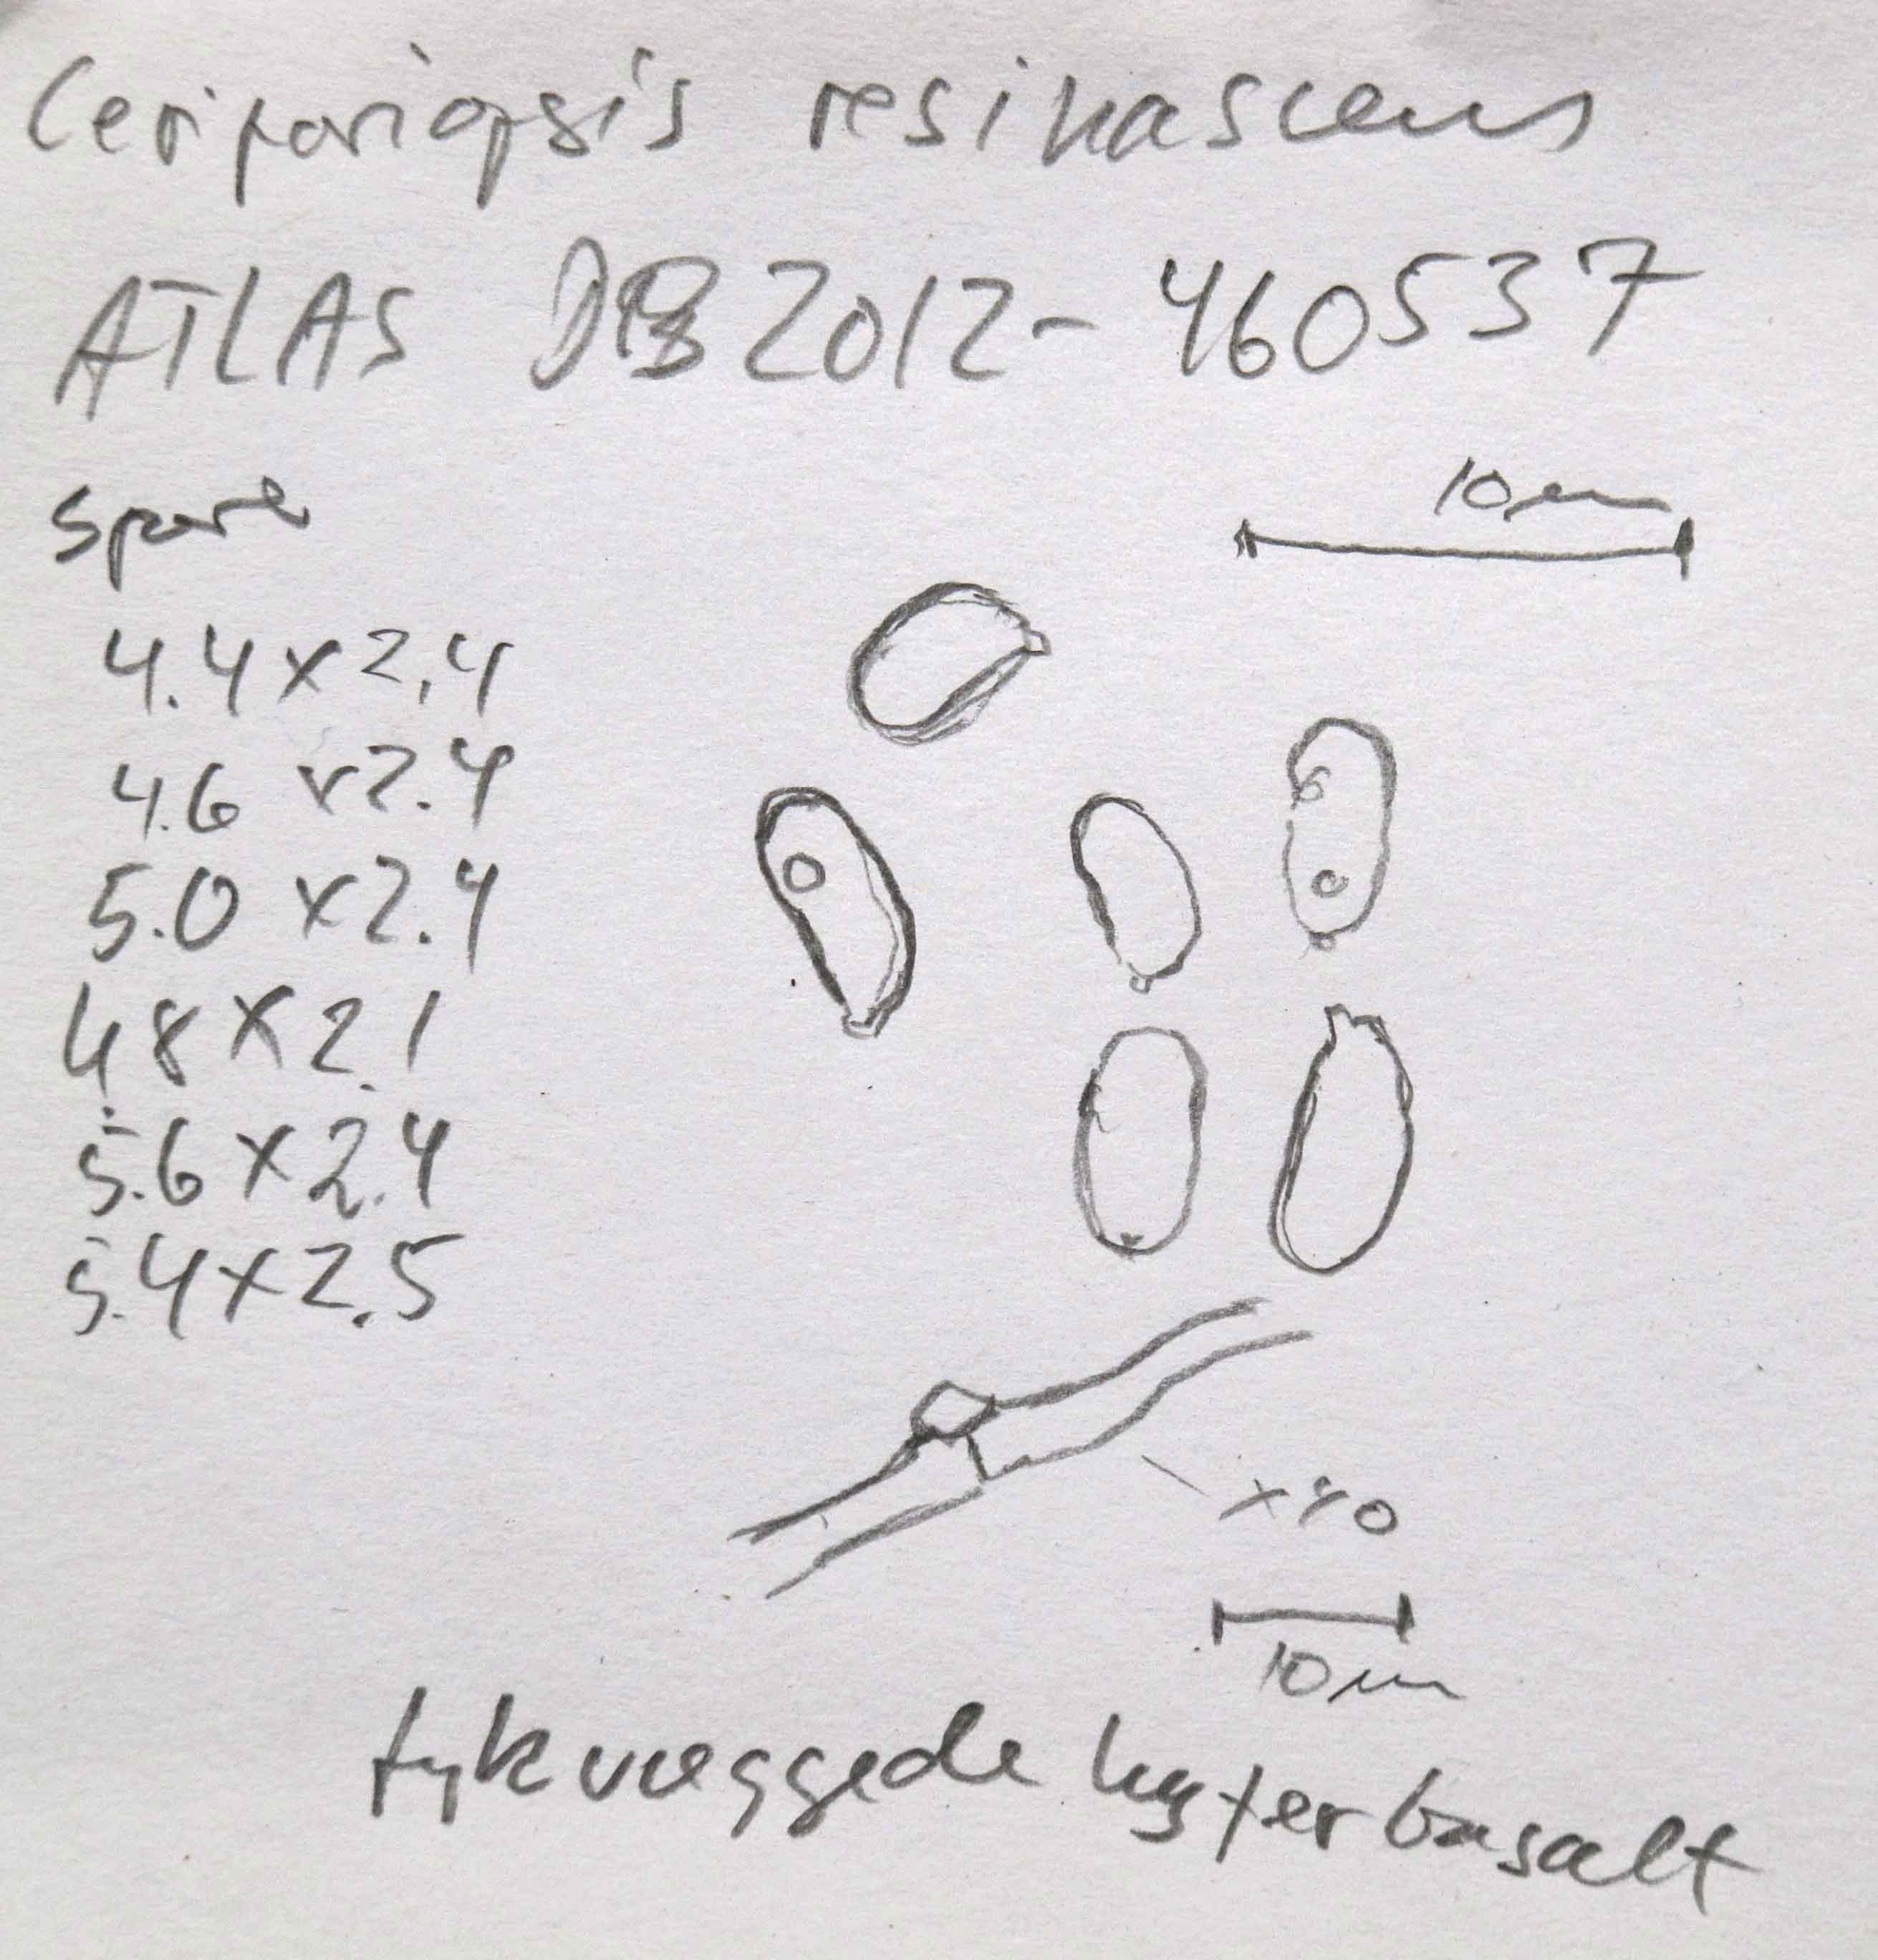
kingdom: Fungi
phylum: Basidiomycota
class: Agaricomycetes
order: Polyporales
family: Irpicaceae
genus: Resiniporus
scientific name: Resiniporus resinascens
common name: trist pastelporesvamp
